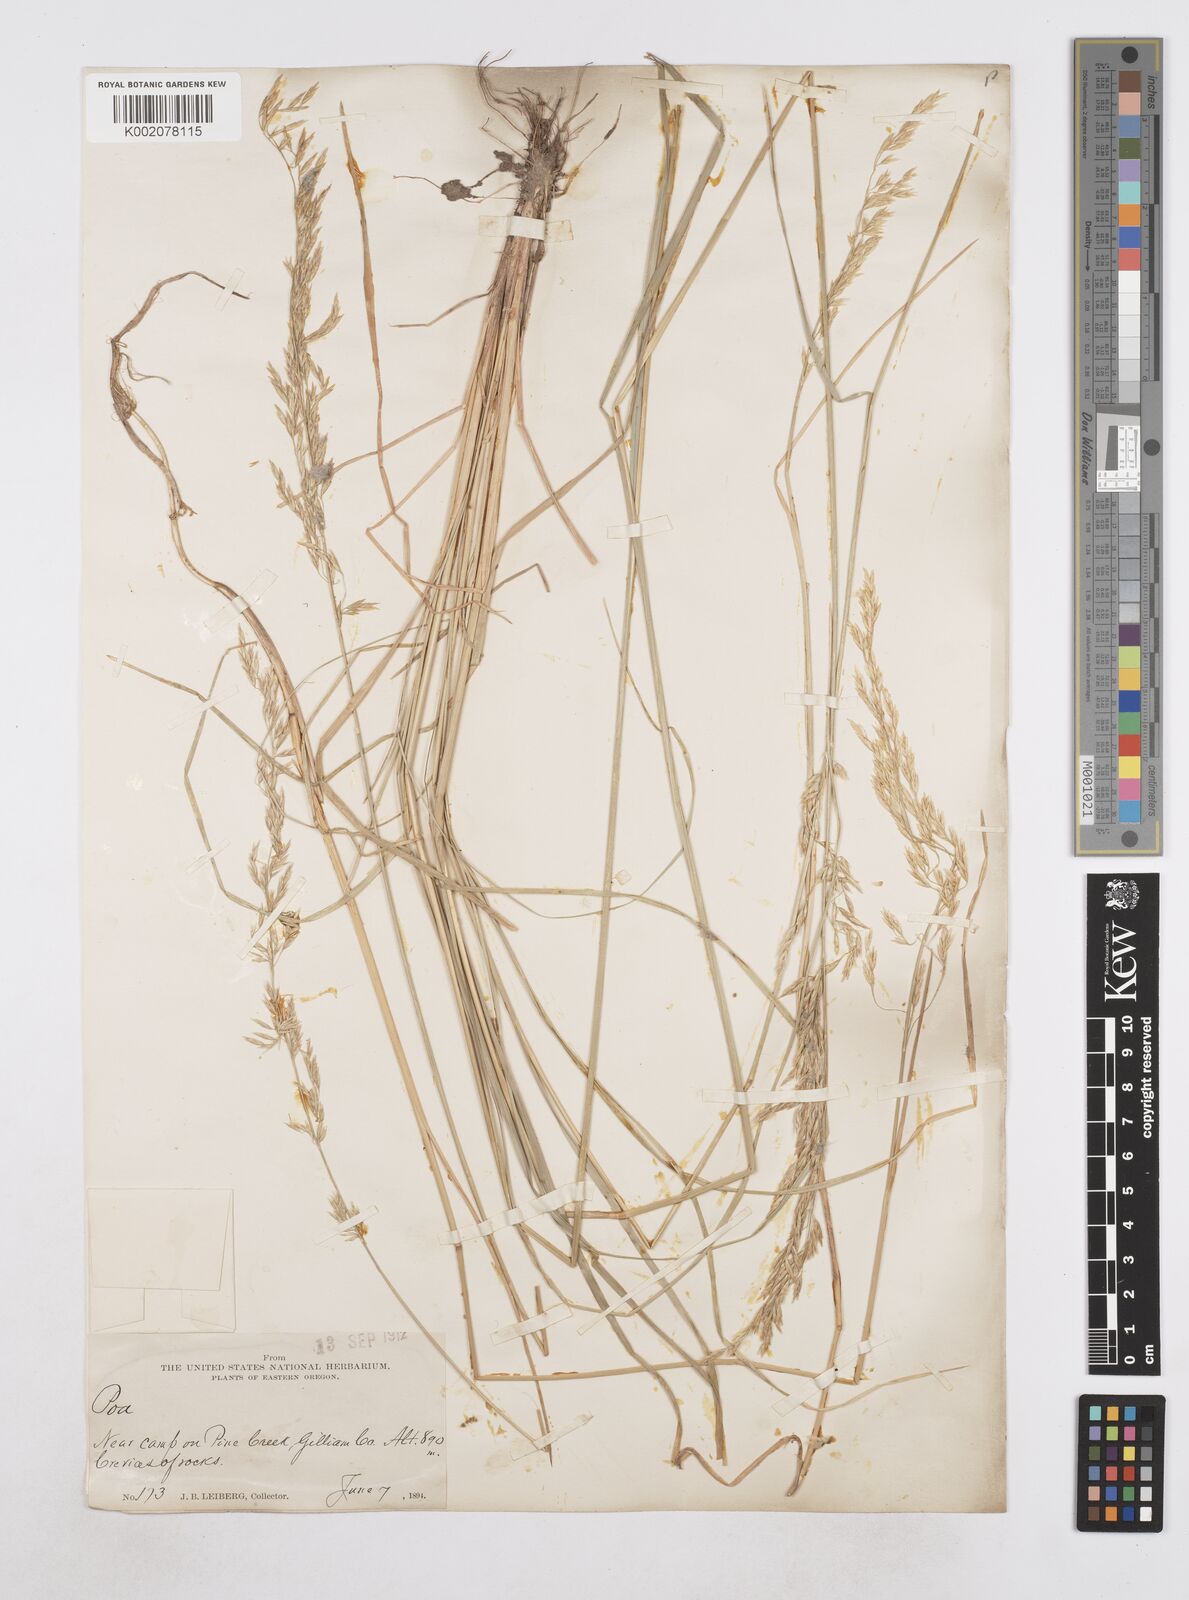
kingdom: Plantae
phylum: Tracheophyta
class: Liliopsida
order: Poales
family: Poaceae
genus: Poa
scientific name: Poa
